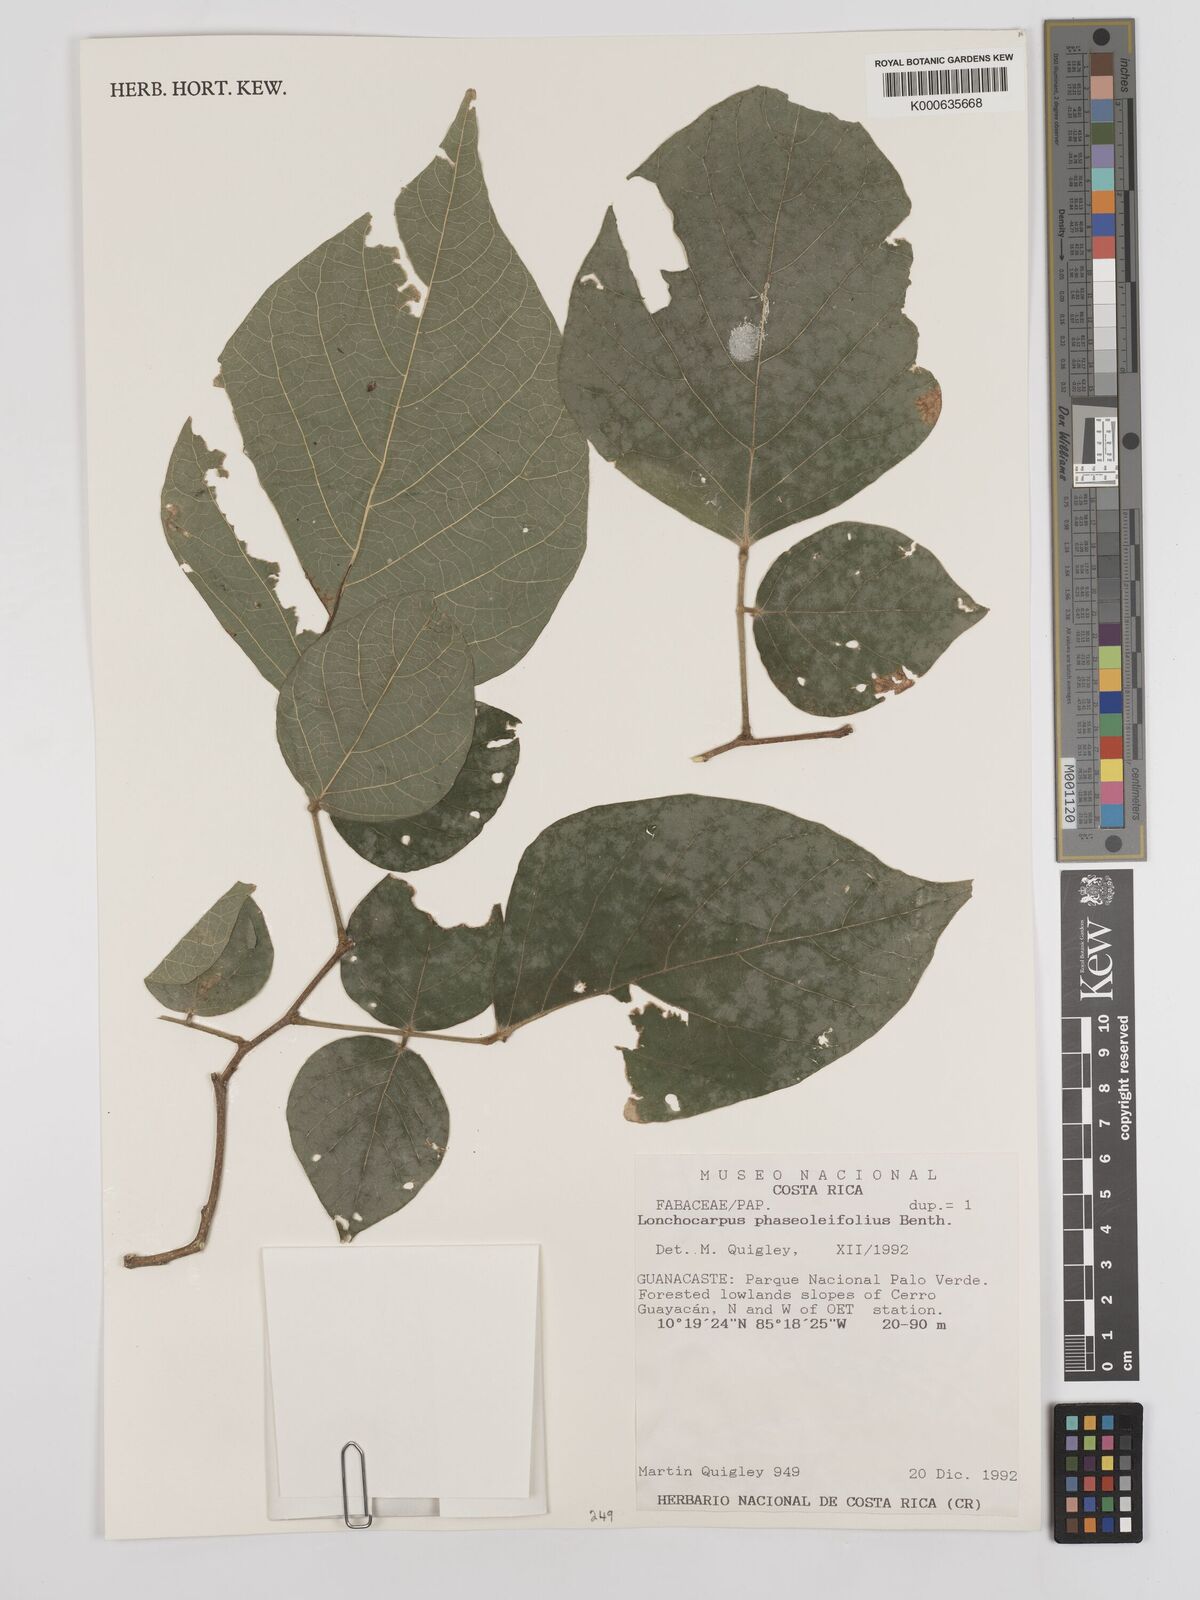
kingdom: Plantae
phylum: Tracheophyta
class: Magnoliopsida
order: Fabales
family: Fabaceae
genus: Lonchocarpus
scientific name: Lonchocarpus phaseolifolius
